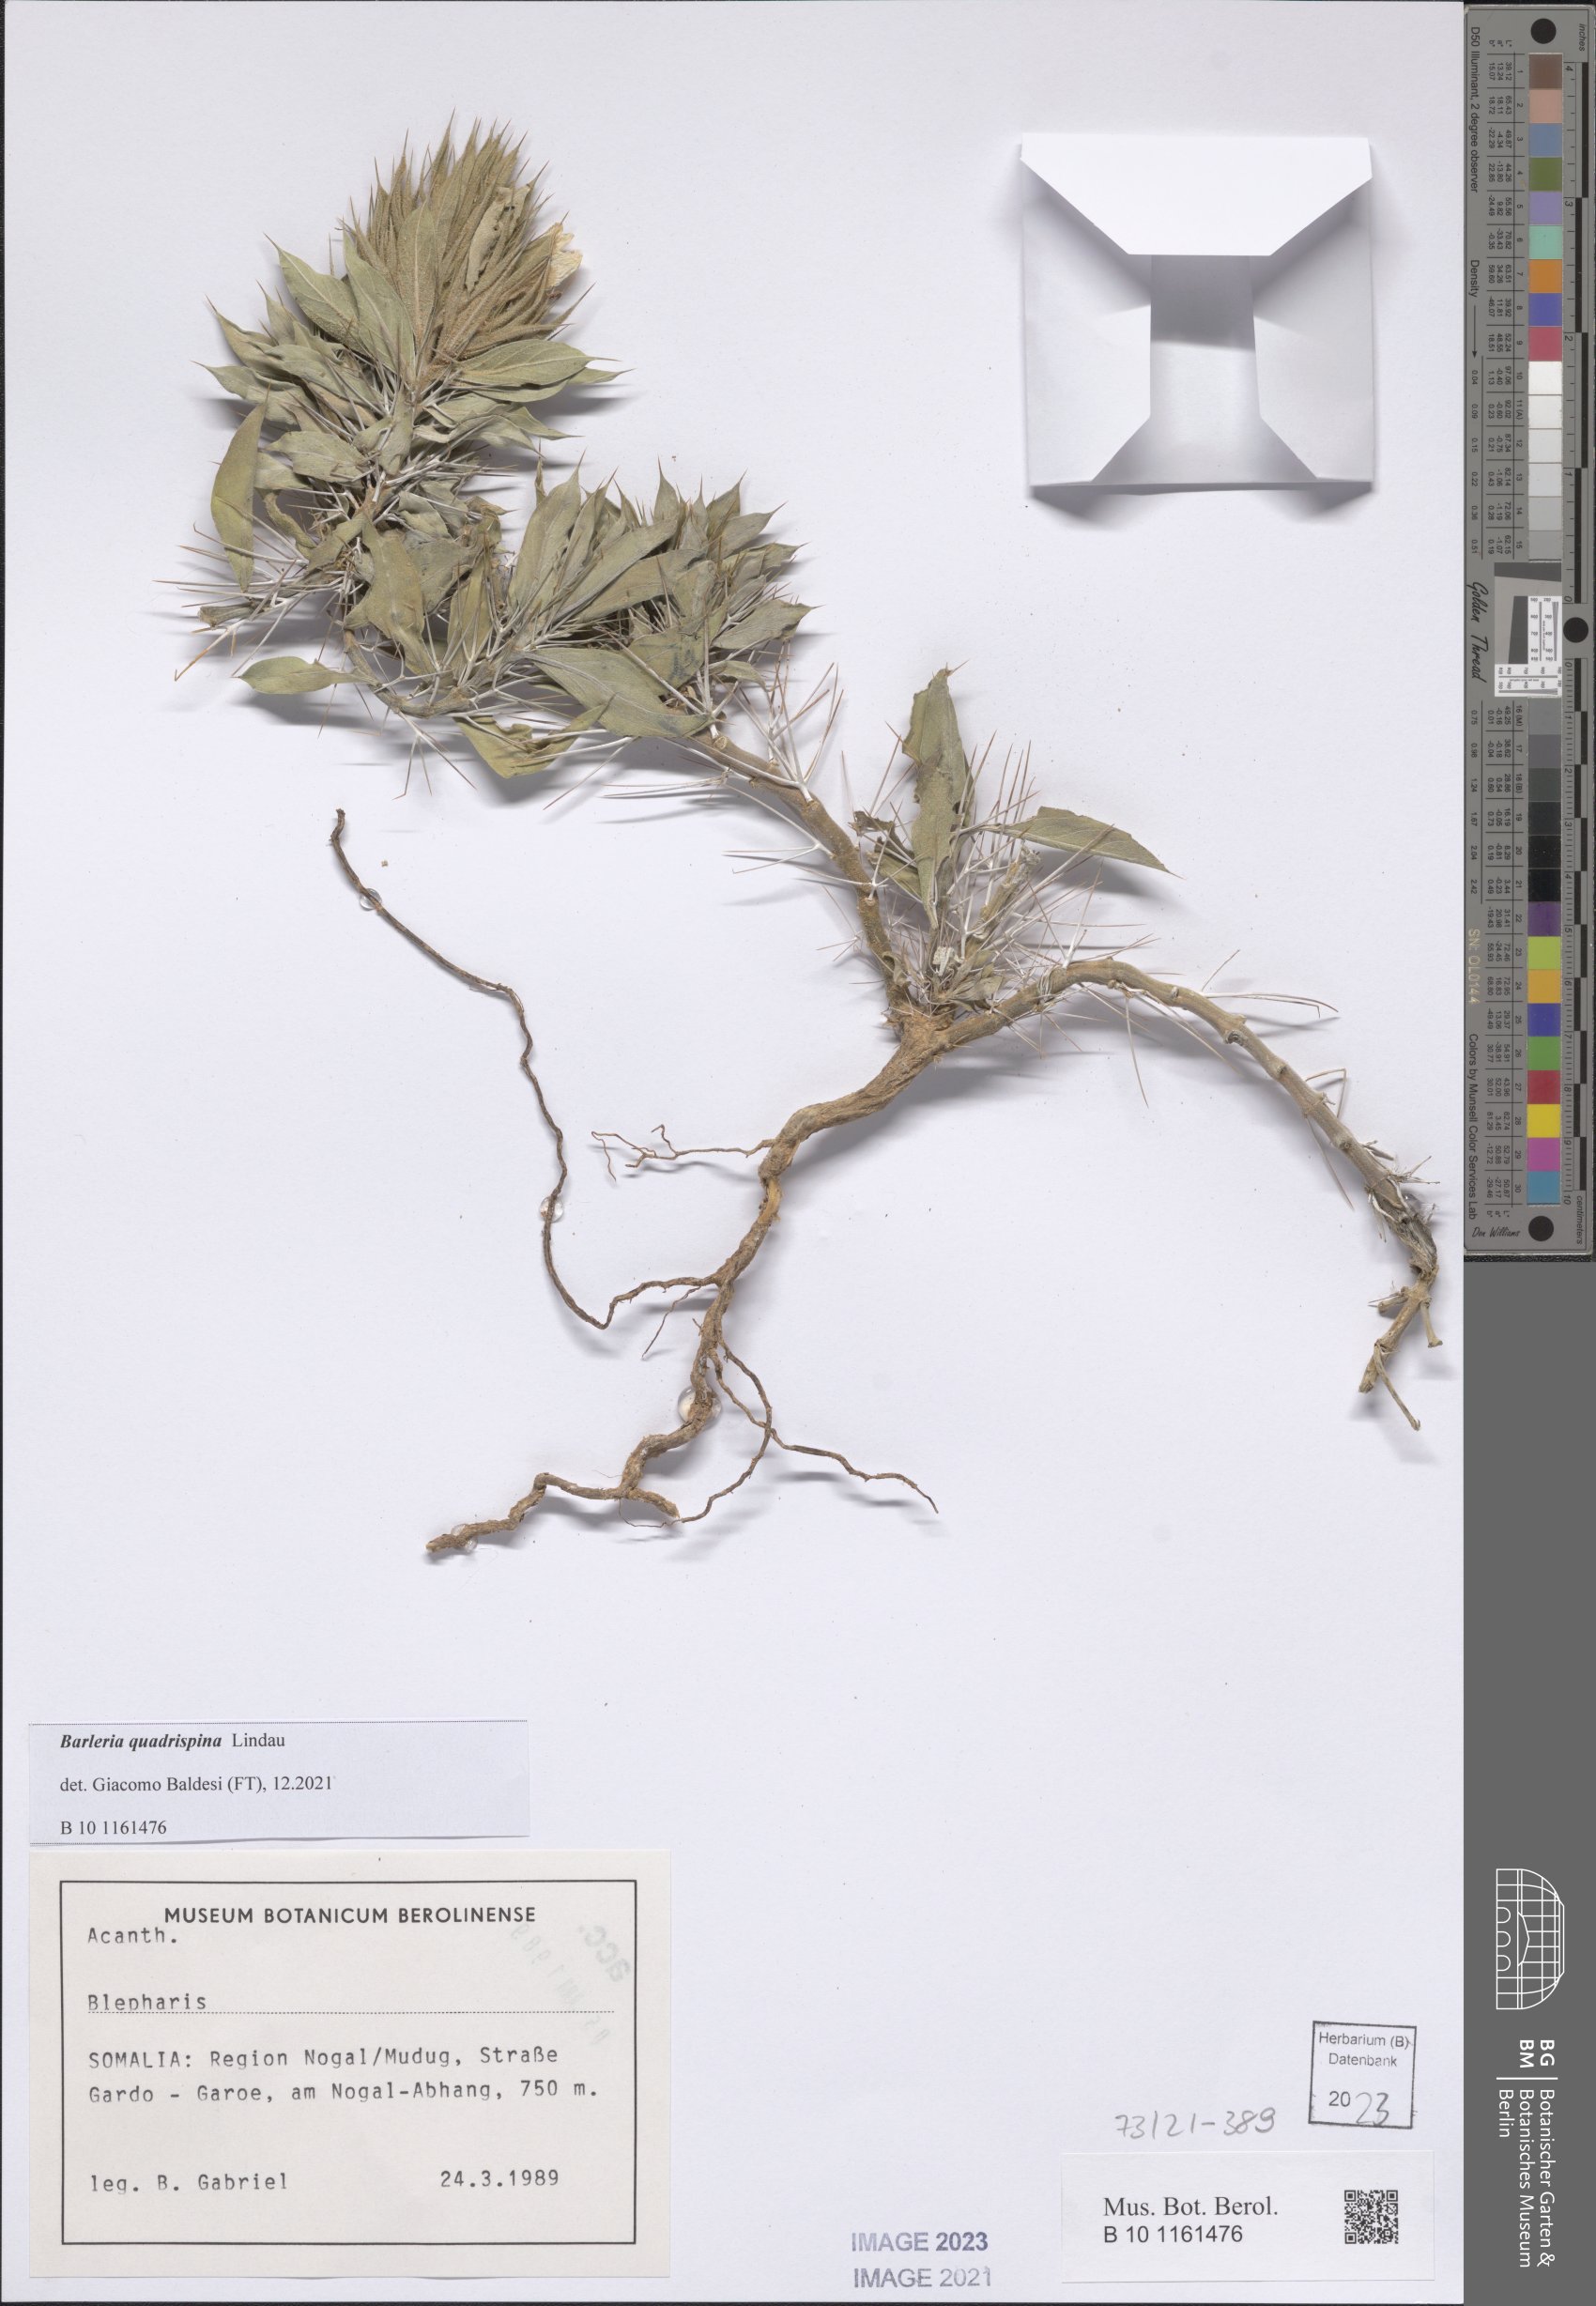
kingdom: Plantae
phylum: Tracheophyta
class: Magnoliopsida
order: Lamiales
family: Acanthaceae
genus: Barleria
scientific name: Barleria quadrispina
